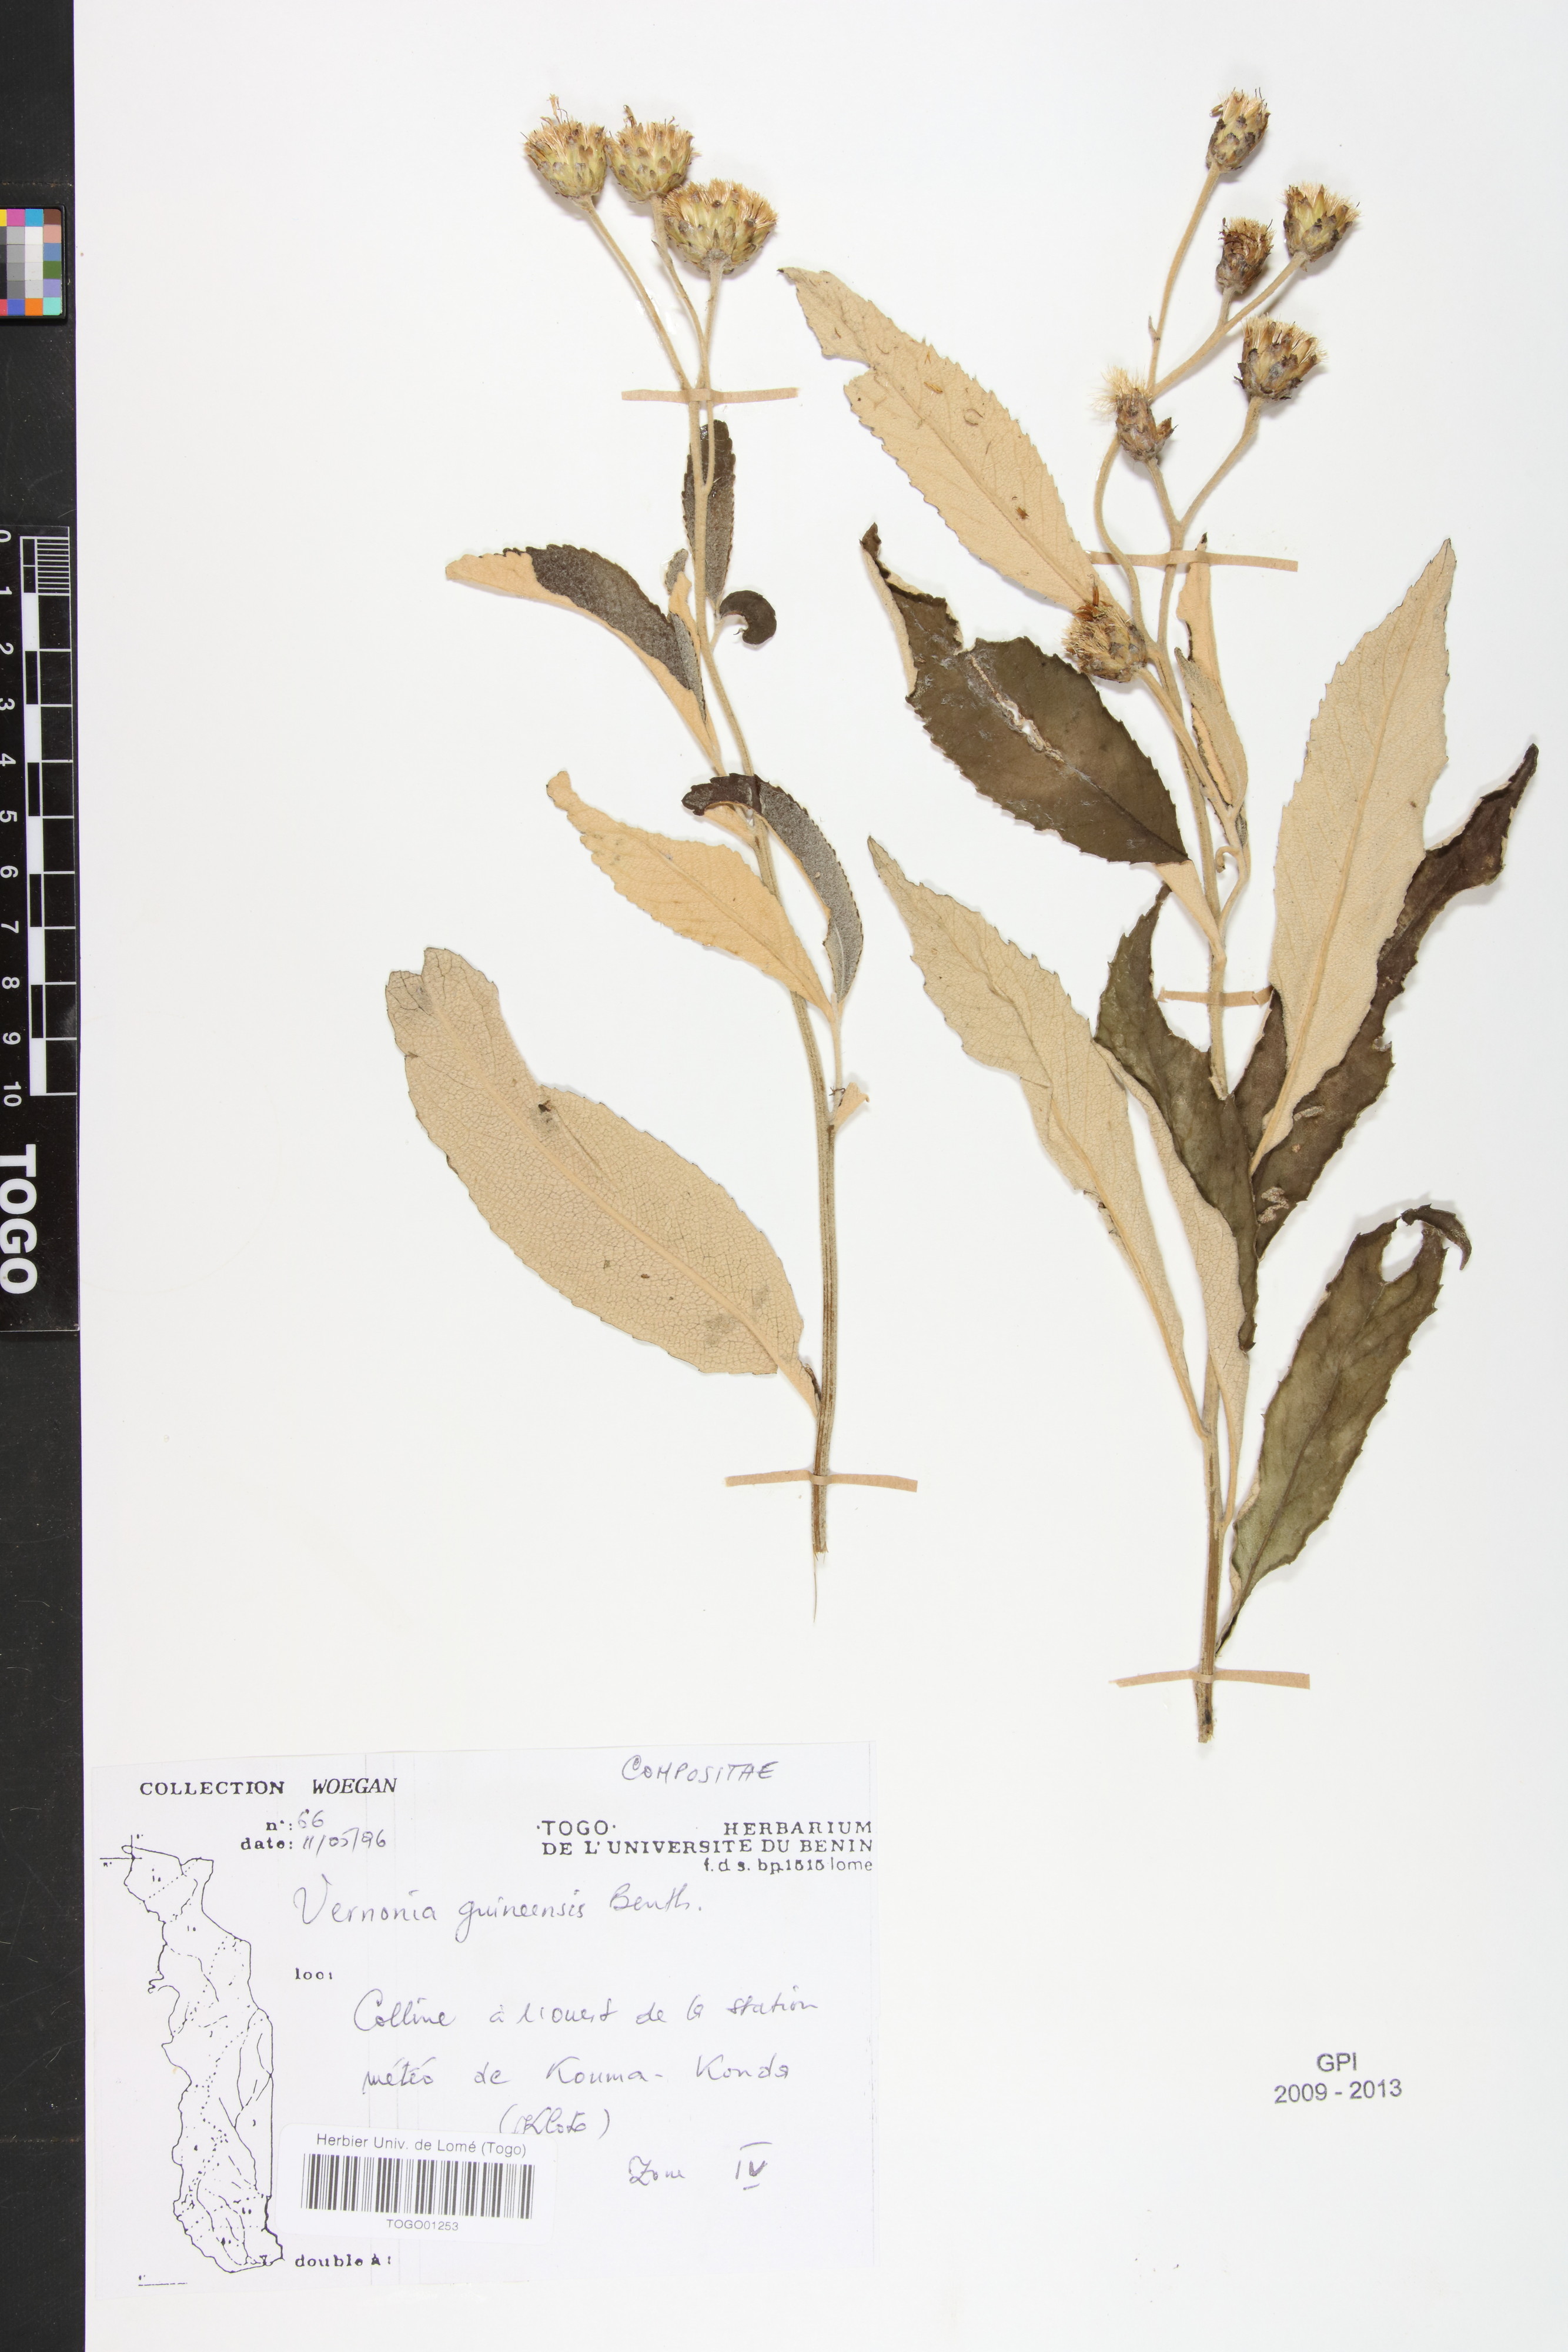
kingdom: Plantae
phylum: Tracheophyta
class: Magnoliopsida
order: Asterales
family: Asteraceae
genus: Baccharoides
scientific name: Baccharoides guineensis
